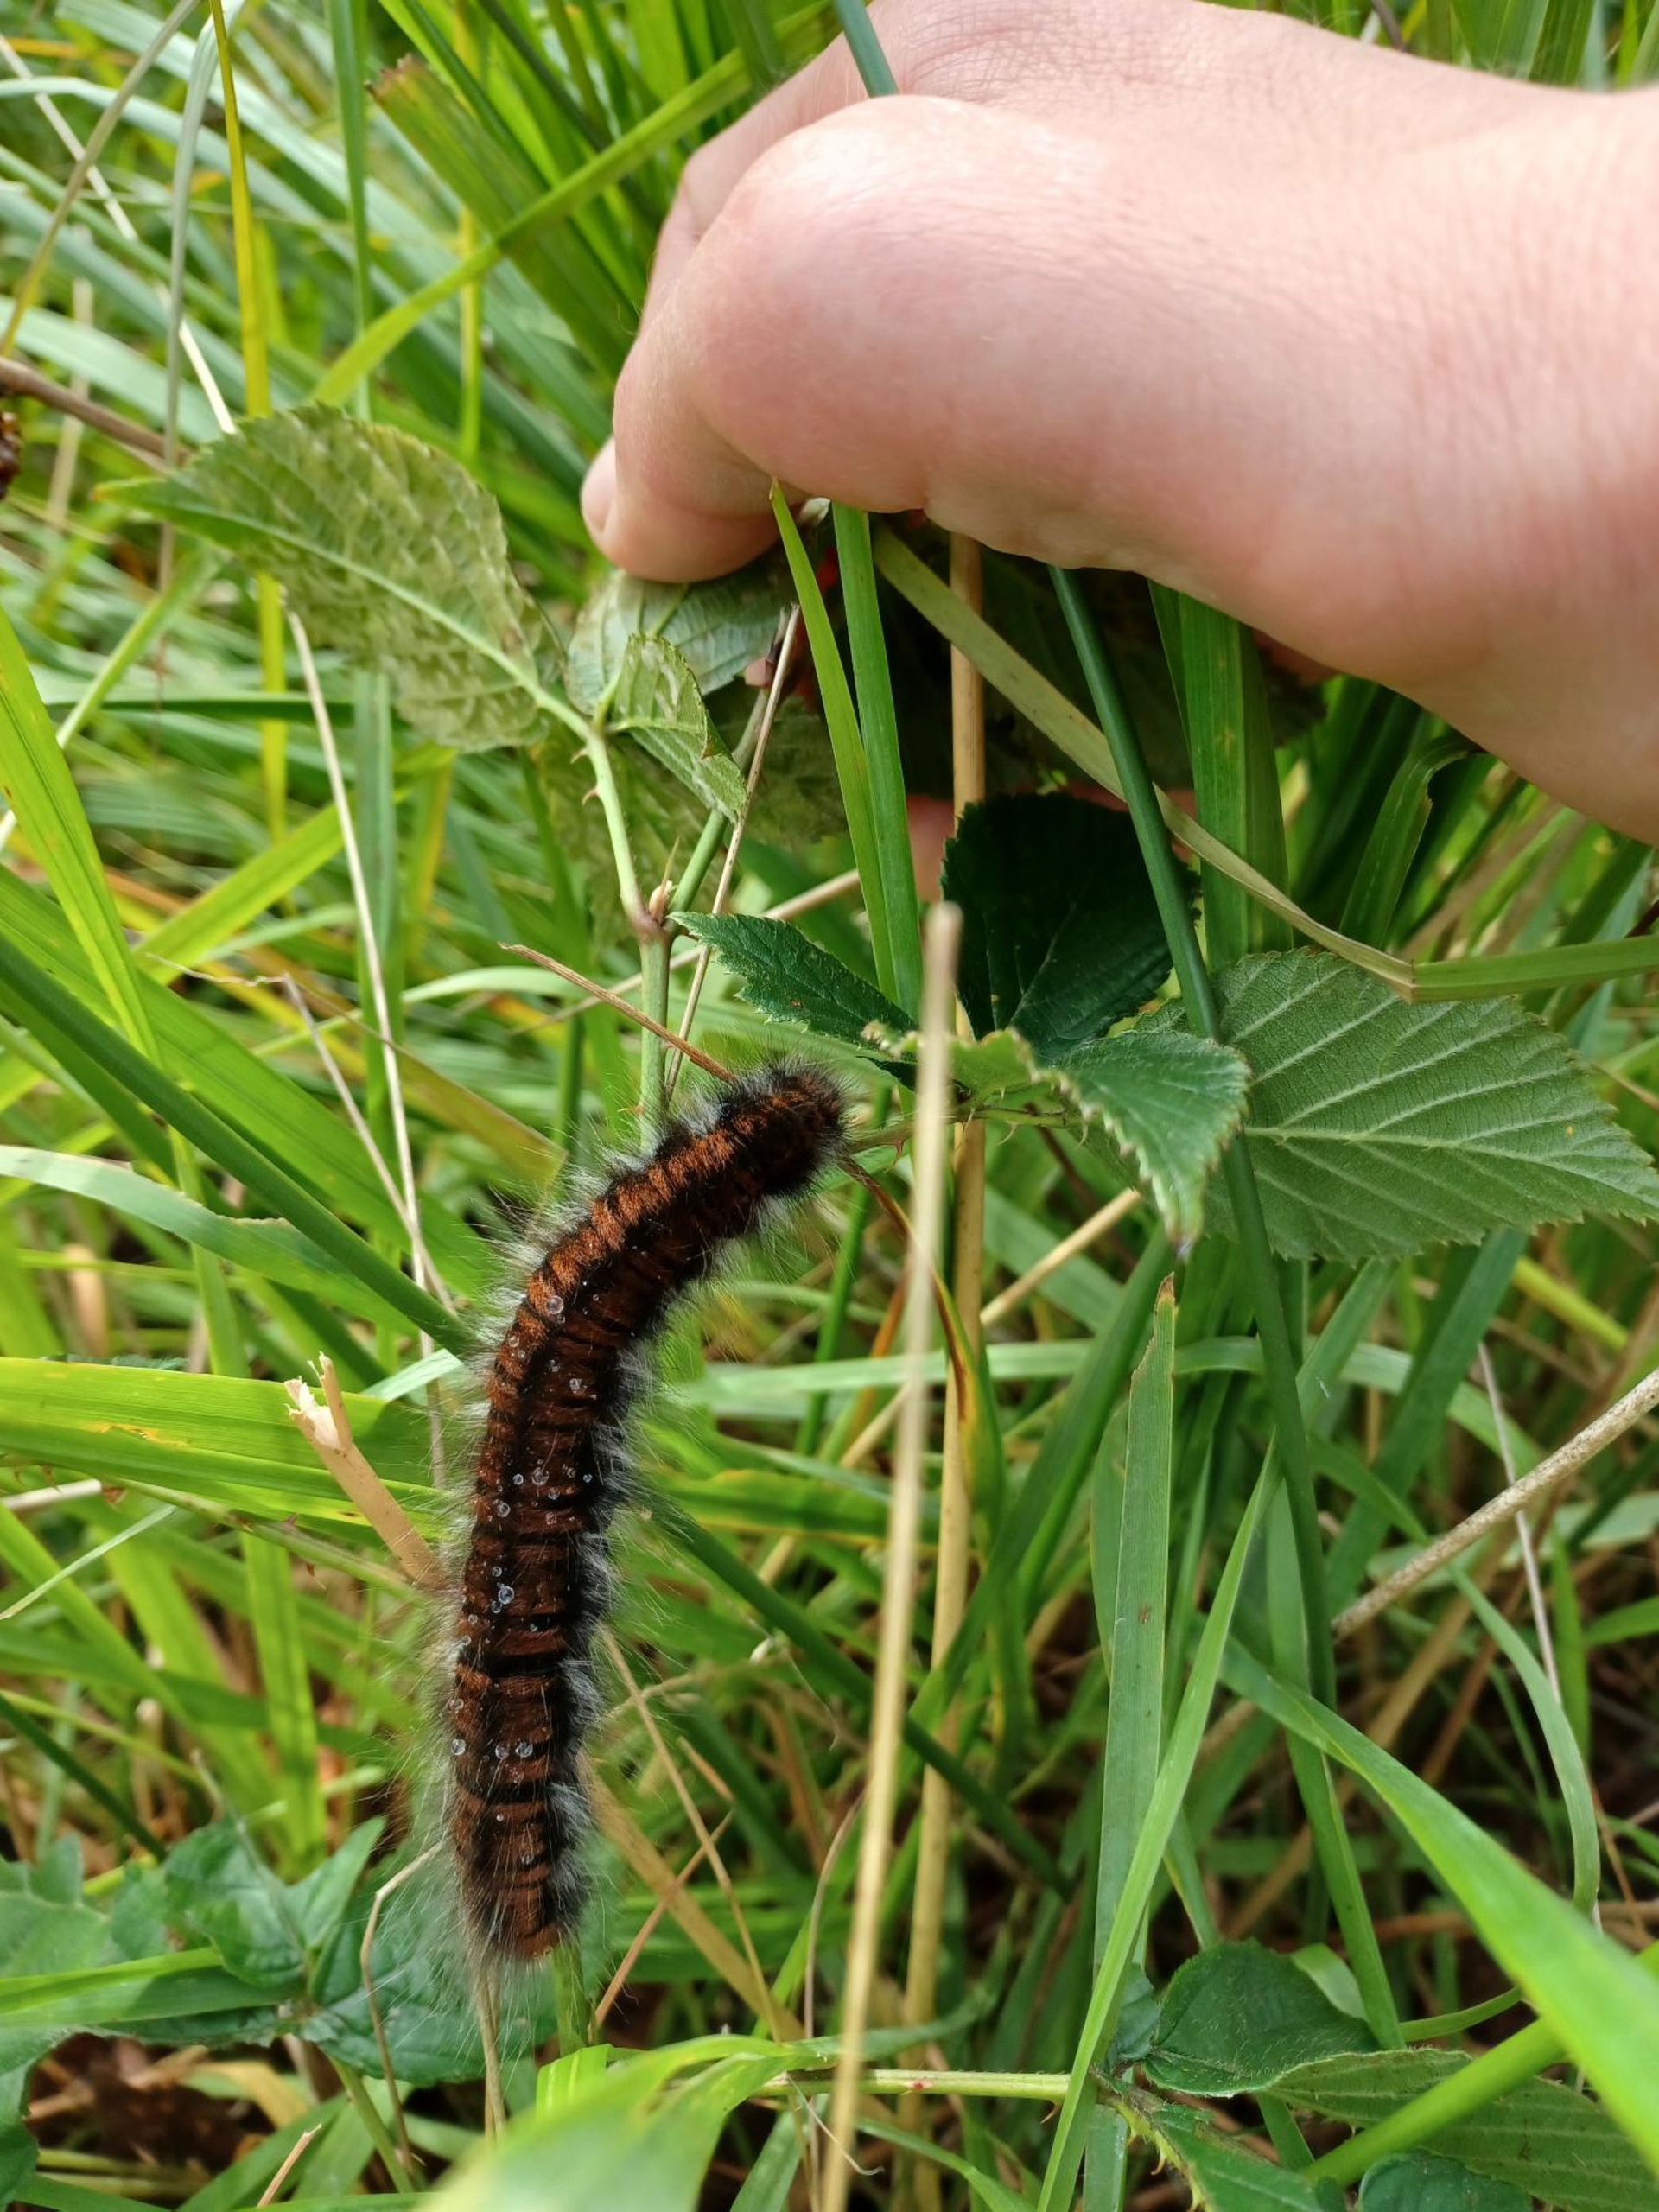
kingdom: Animalia
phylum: Arthropoda
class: Insecta
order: Lepidoptera
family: Lasiocampidae
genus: Macrothylacia
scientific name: Macrothylacia rubi
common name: Brombærspinder
